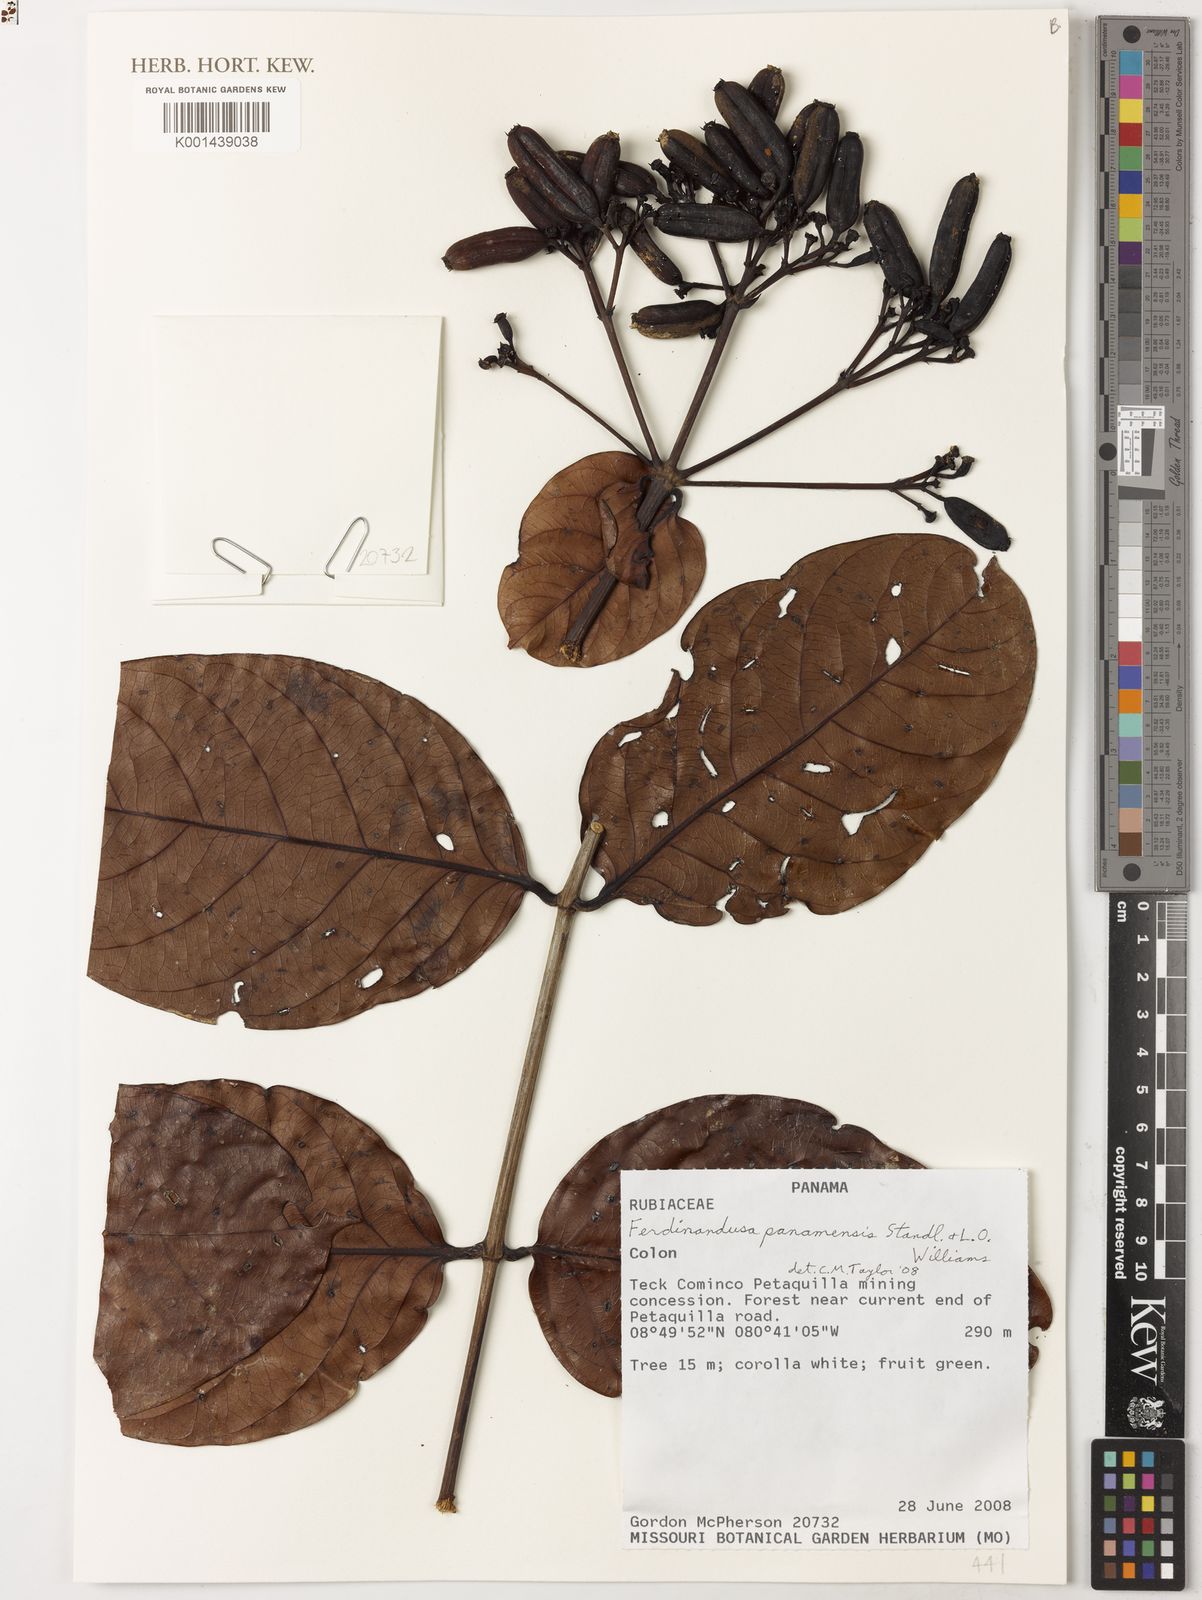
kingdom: Plantae
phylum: Tracheophyta
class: Magnoliopsida
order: Gentianales
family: Rubiaceae
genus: Ferdinandusa
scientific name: Ferdinandusa panamensis
